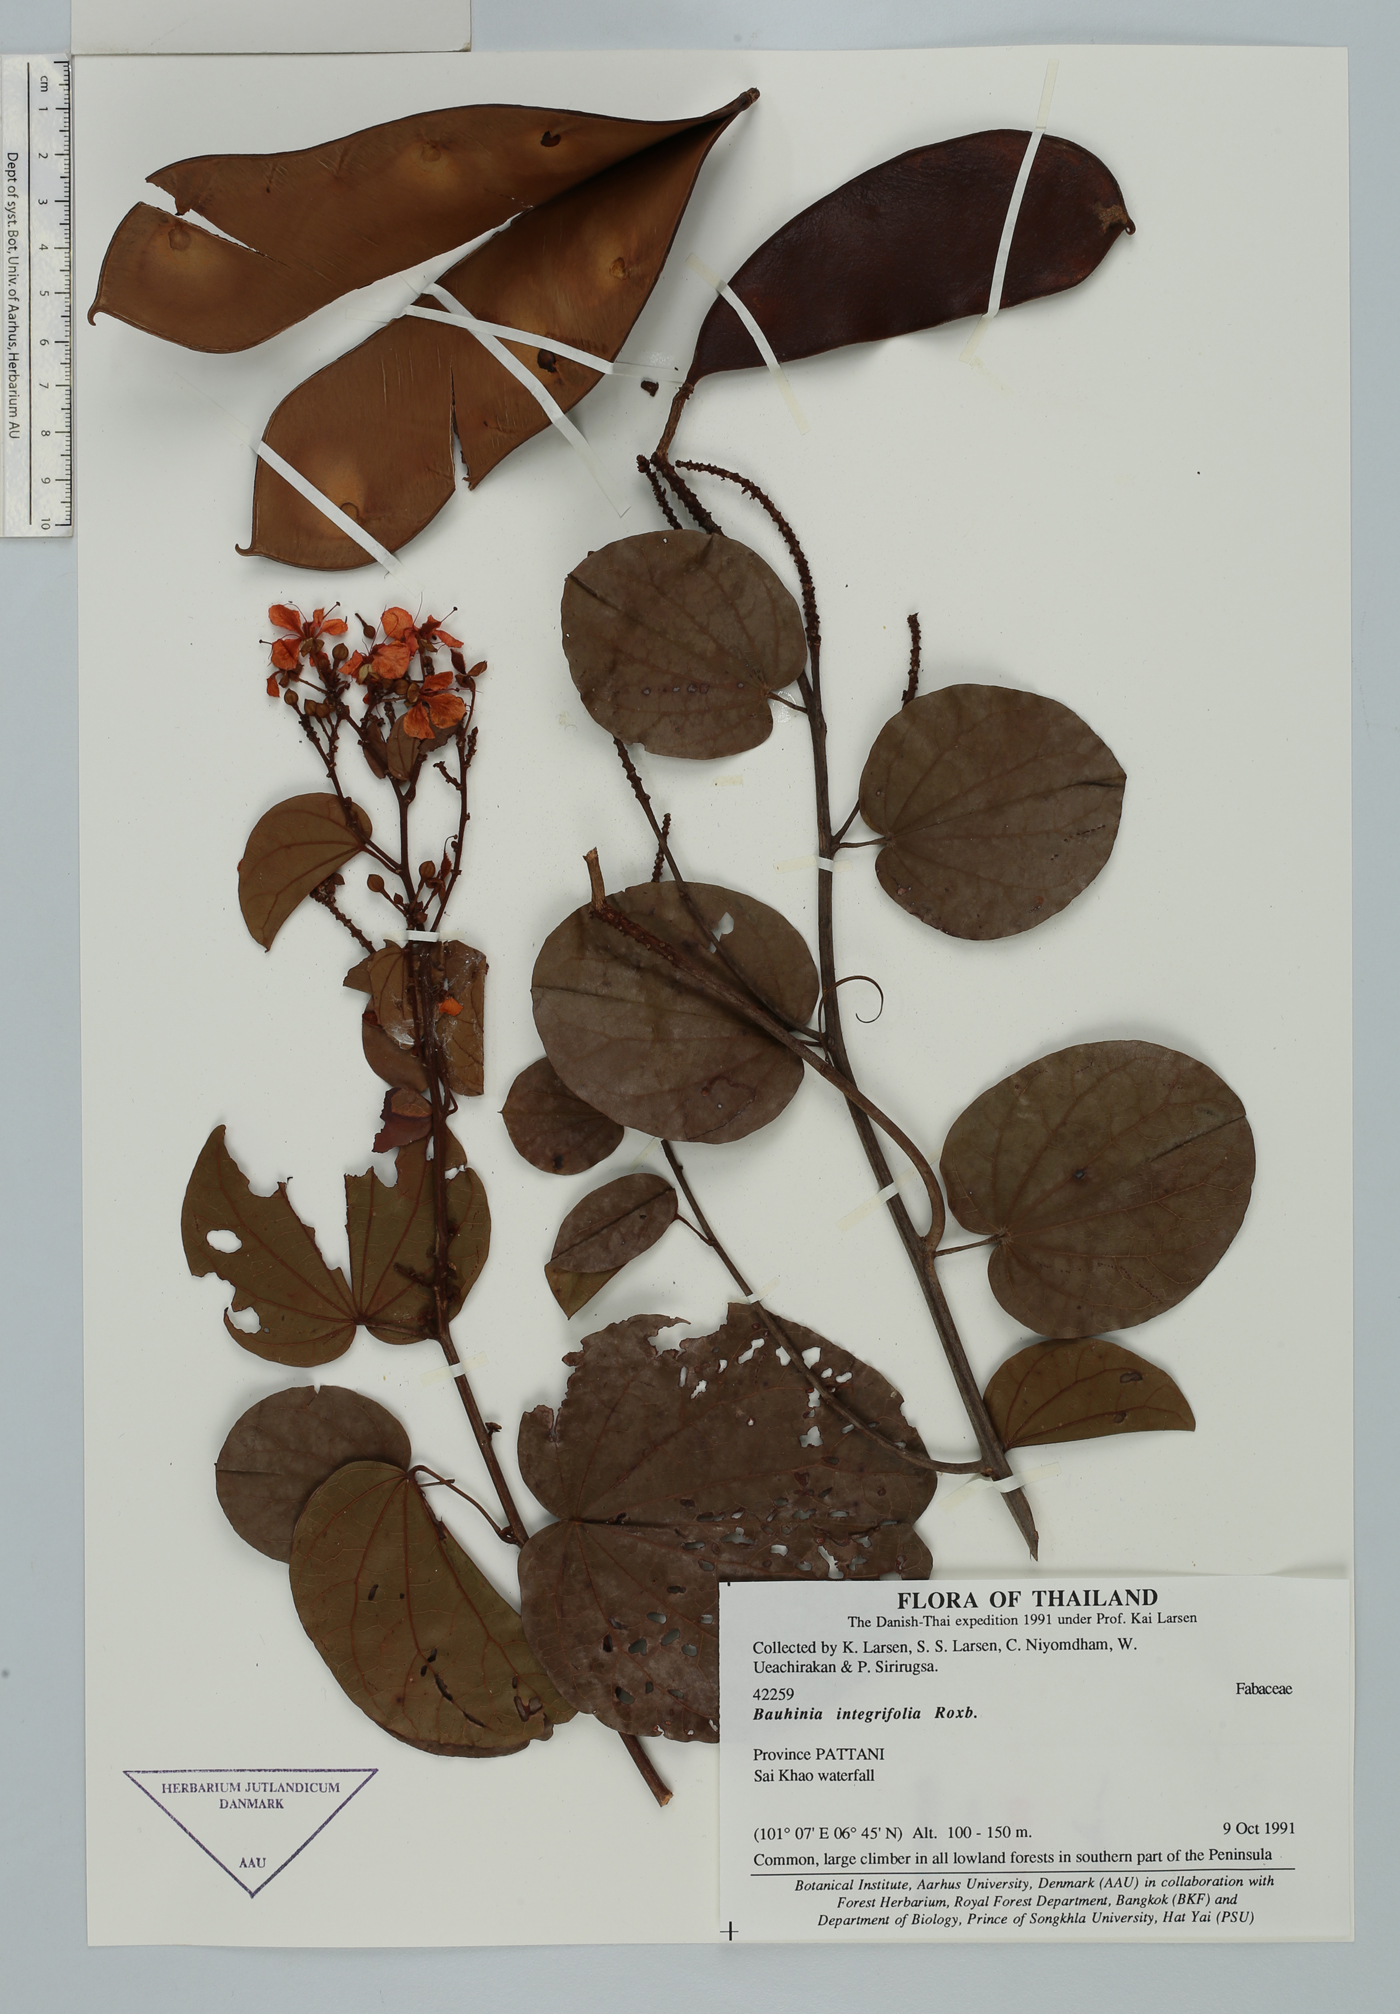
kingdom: Plantae
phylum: Tracheophyta
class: Magnoliopsida
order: Fabales
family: Fabaceae
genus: Phanera
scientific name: Phanera integrifolia
